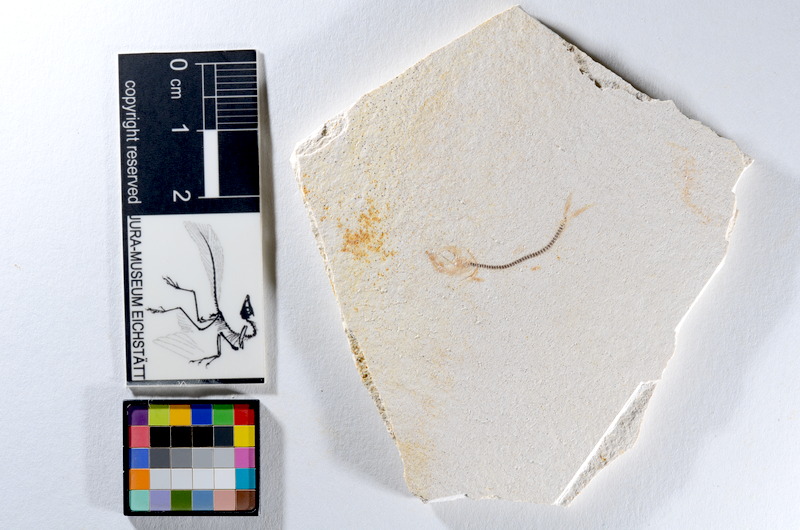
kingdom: Animalia
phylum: Chordata
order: Salmoniformes
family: Orthogonikleithridae
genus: Orthogonikleithrus
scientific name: Orthogonikleithrus hoelli
